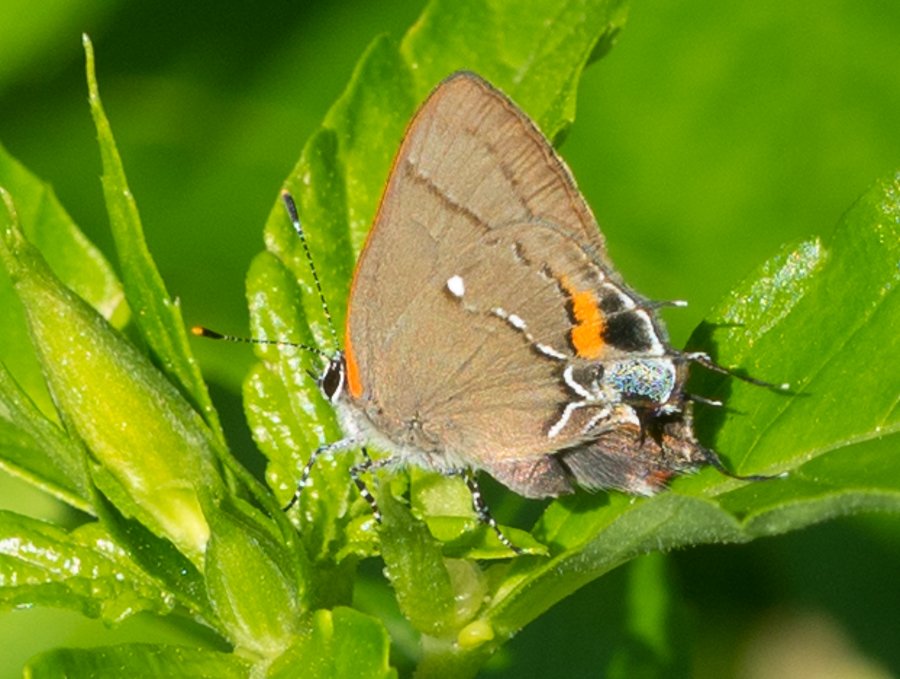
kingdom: Animalia
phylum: Arthropoda
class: Insecta
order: Lepidoptera
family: Lycaenidae
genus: Thecla
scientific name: Thecla angelia
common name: Fulvous Hairstreak
